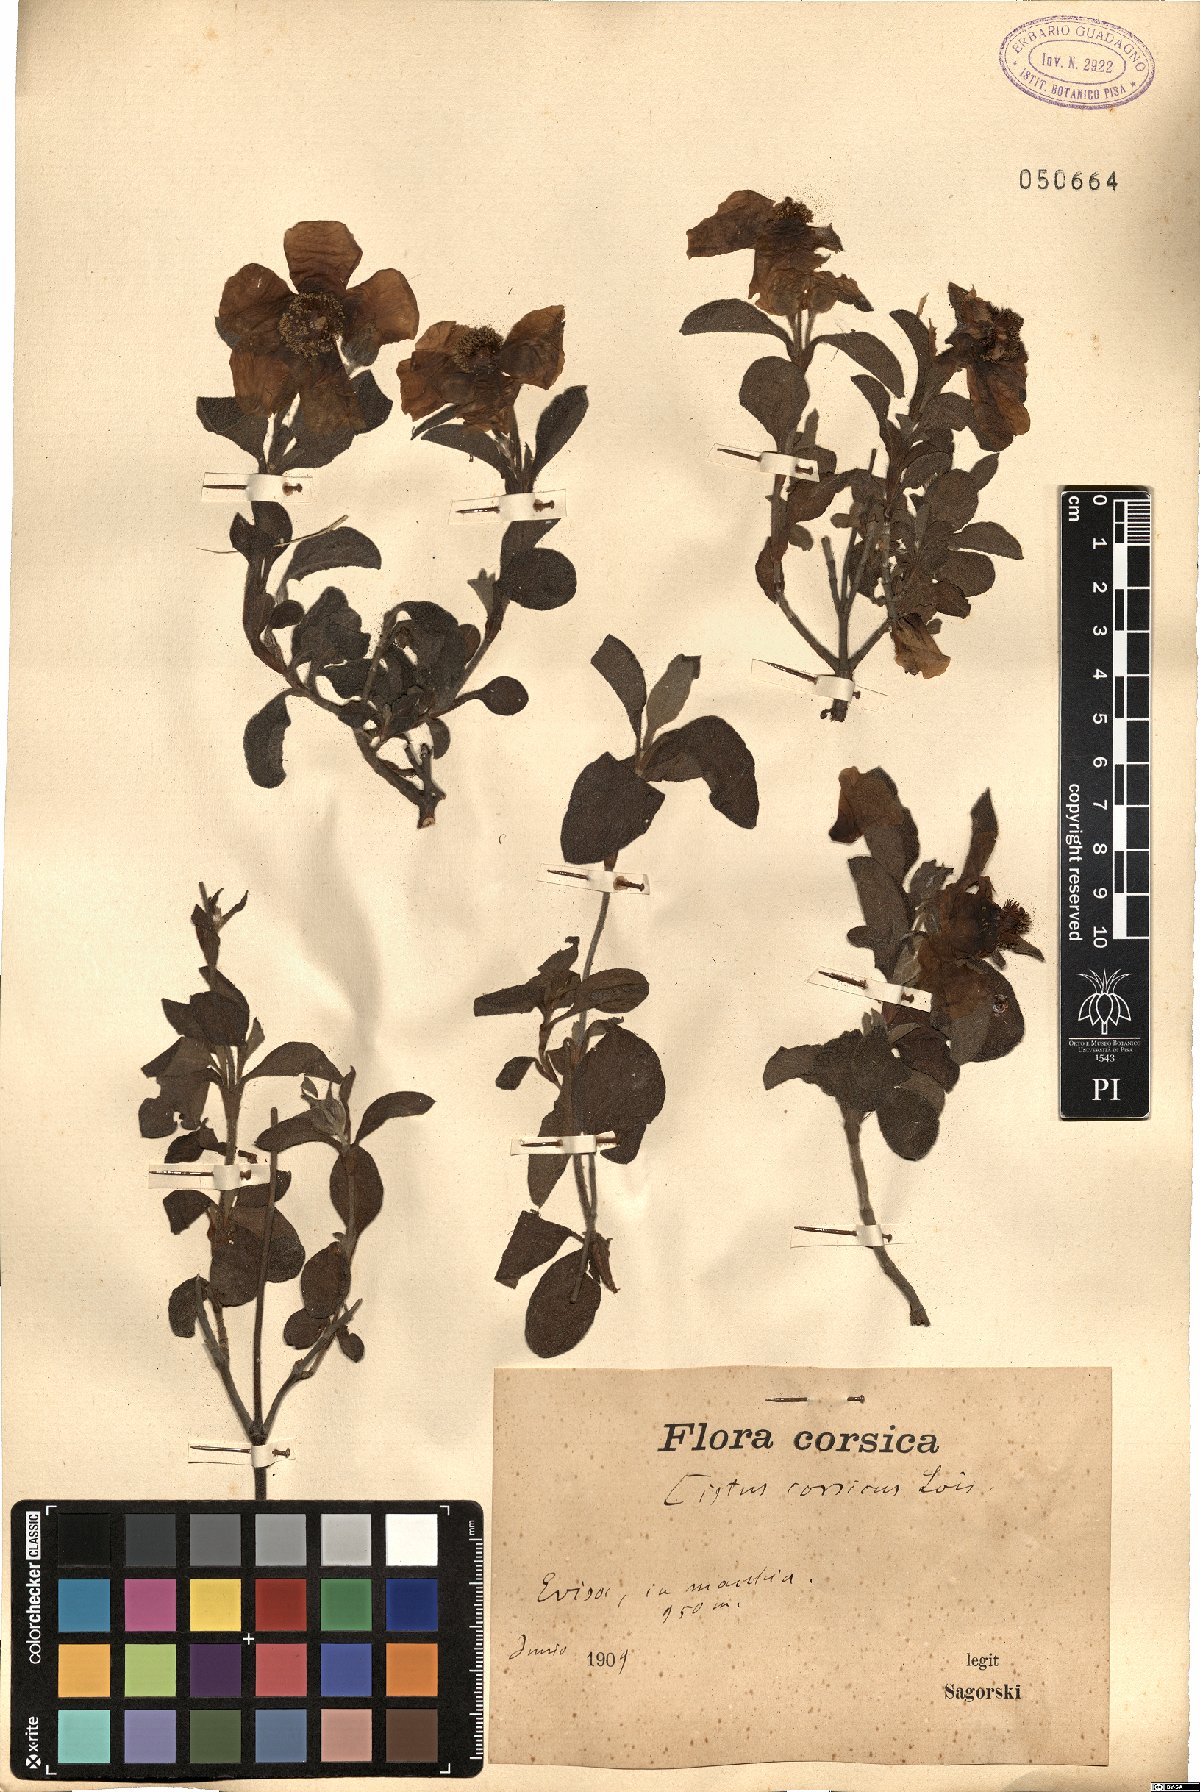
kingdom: Plantae
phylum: Tracheophyta
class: Magnoliopsida
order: Malvales
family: Cistaceae
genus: Cistus
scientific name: Cistus creticus
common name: Cretan rockrose
